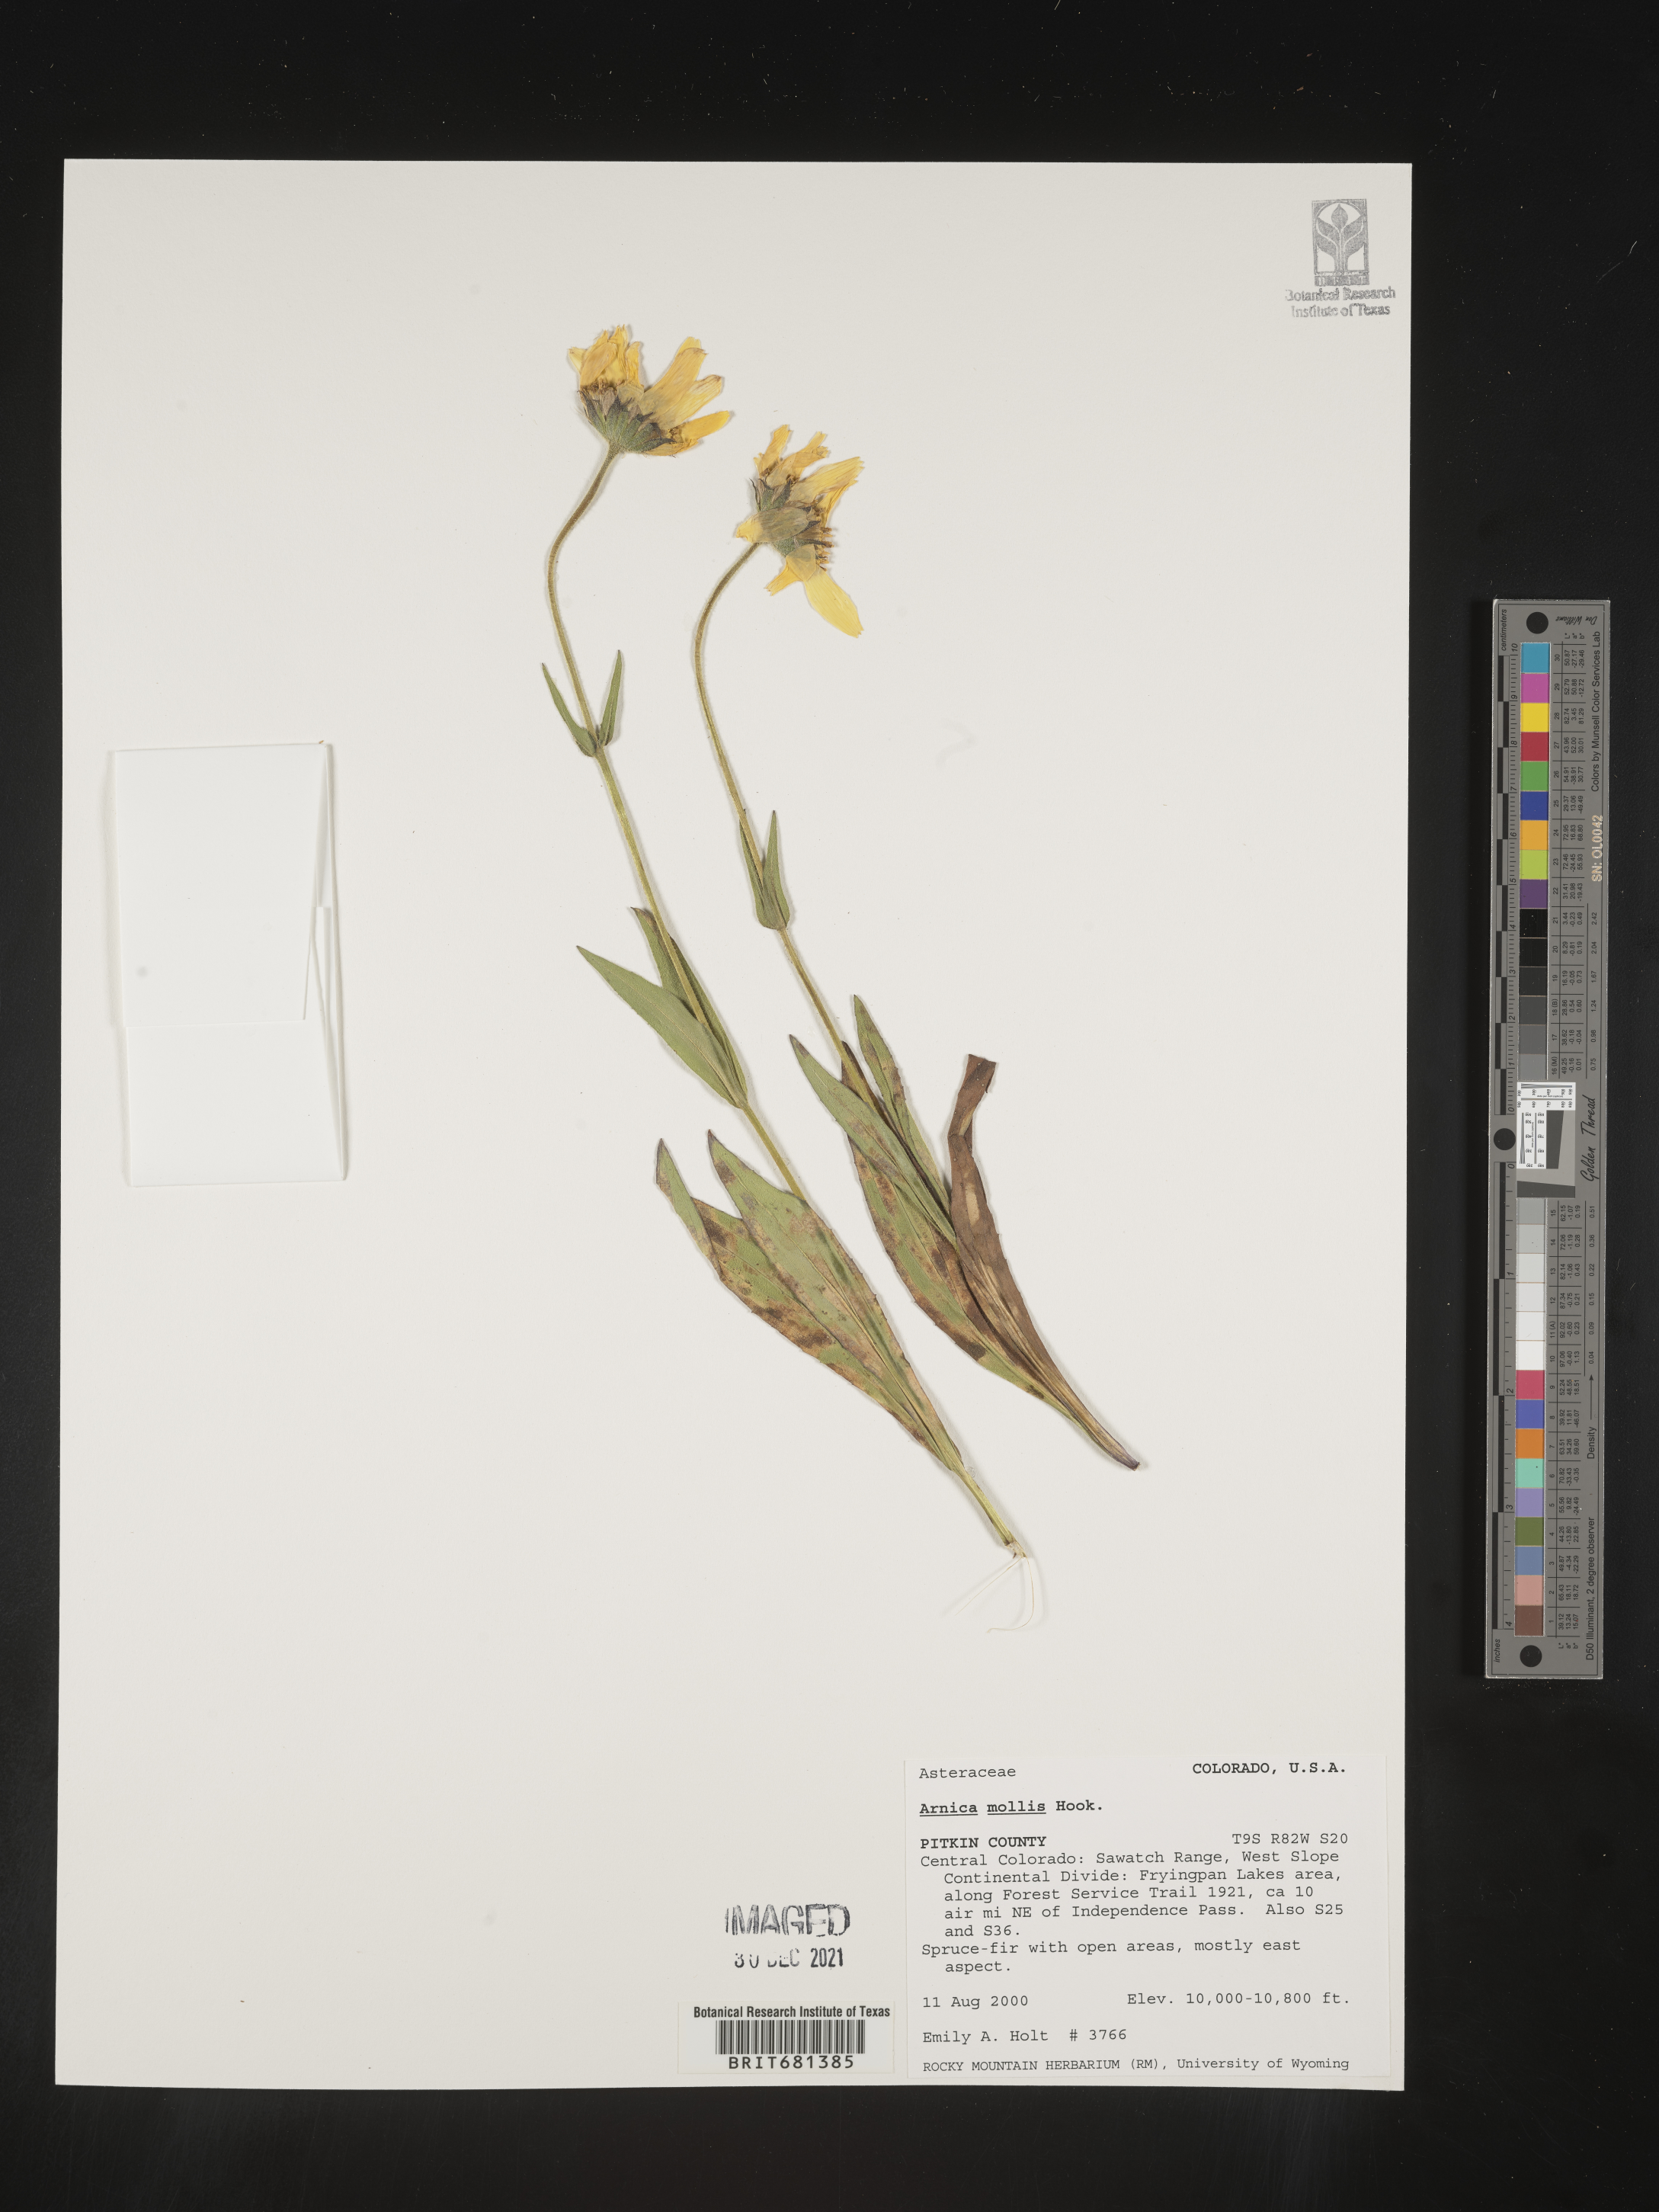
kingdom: Plantae
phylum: Tracheophyta
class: Magnoliopsida
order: Asterales
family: Asteraceae
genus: Arnica
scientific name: Arnica mollis
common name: Hairy arnica
